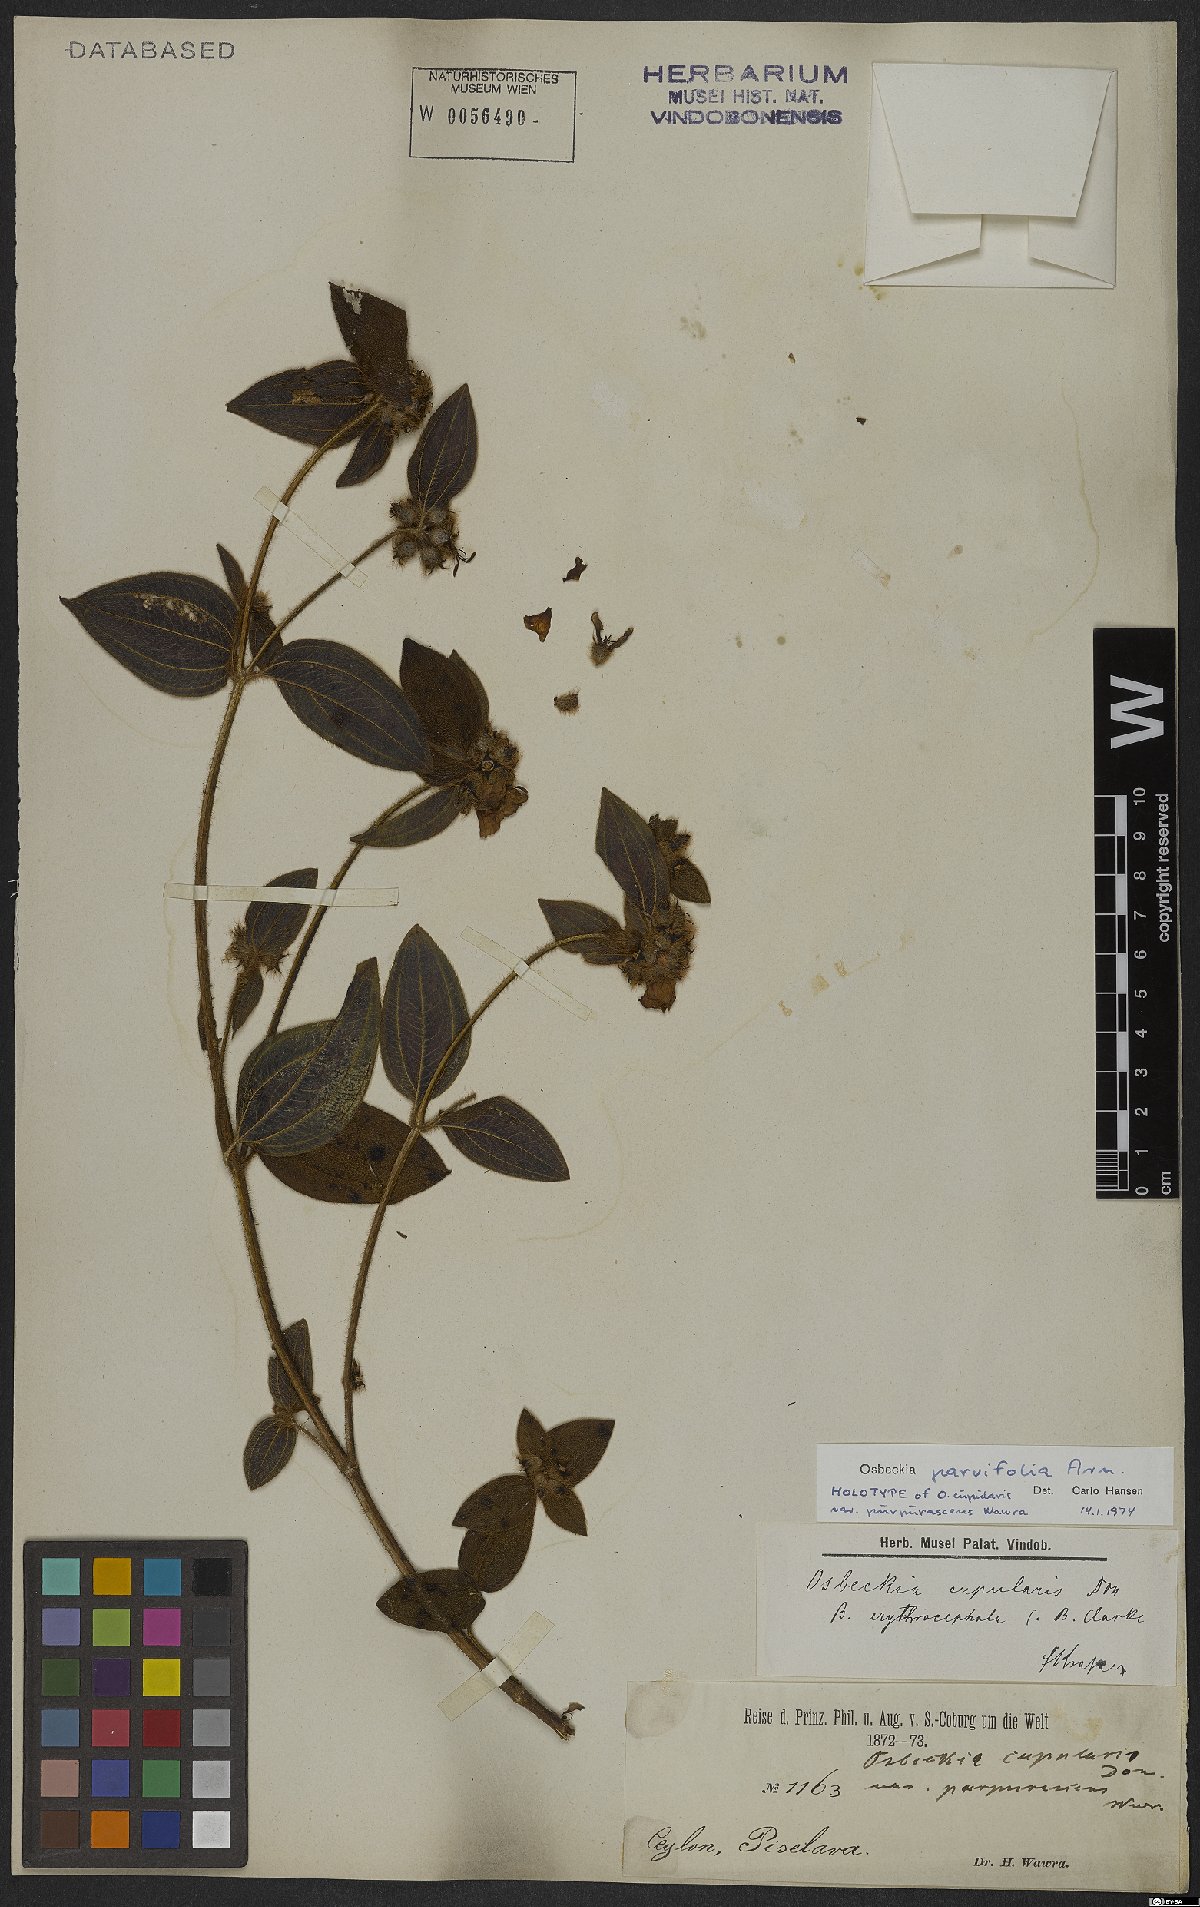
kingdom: Plantae
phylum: Tracheophyta
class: Magnoliopsida
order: Myrtales
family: Melastomataceae
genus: Osbeckia
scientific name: Osbeckia parvifolia
